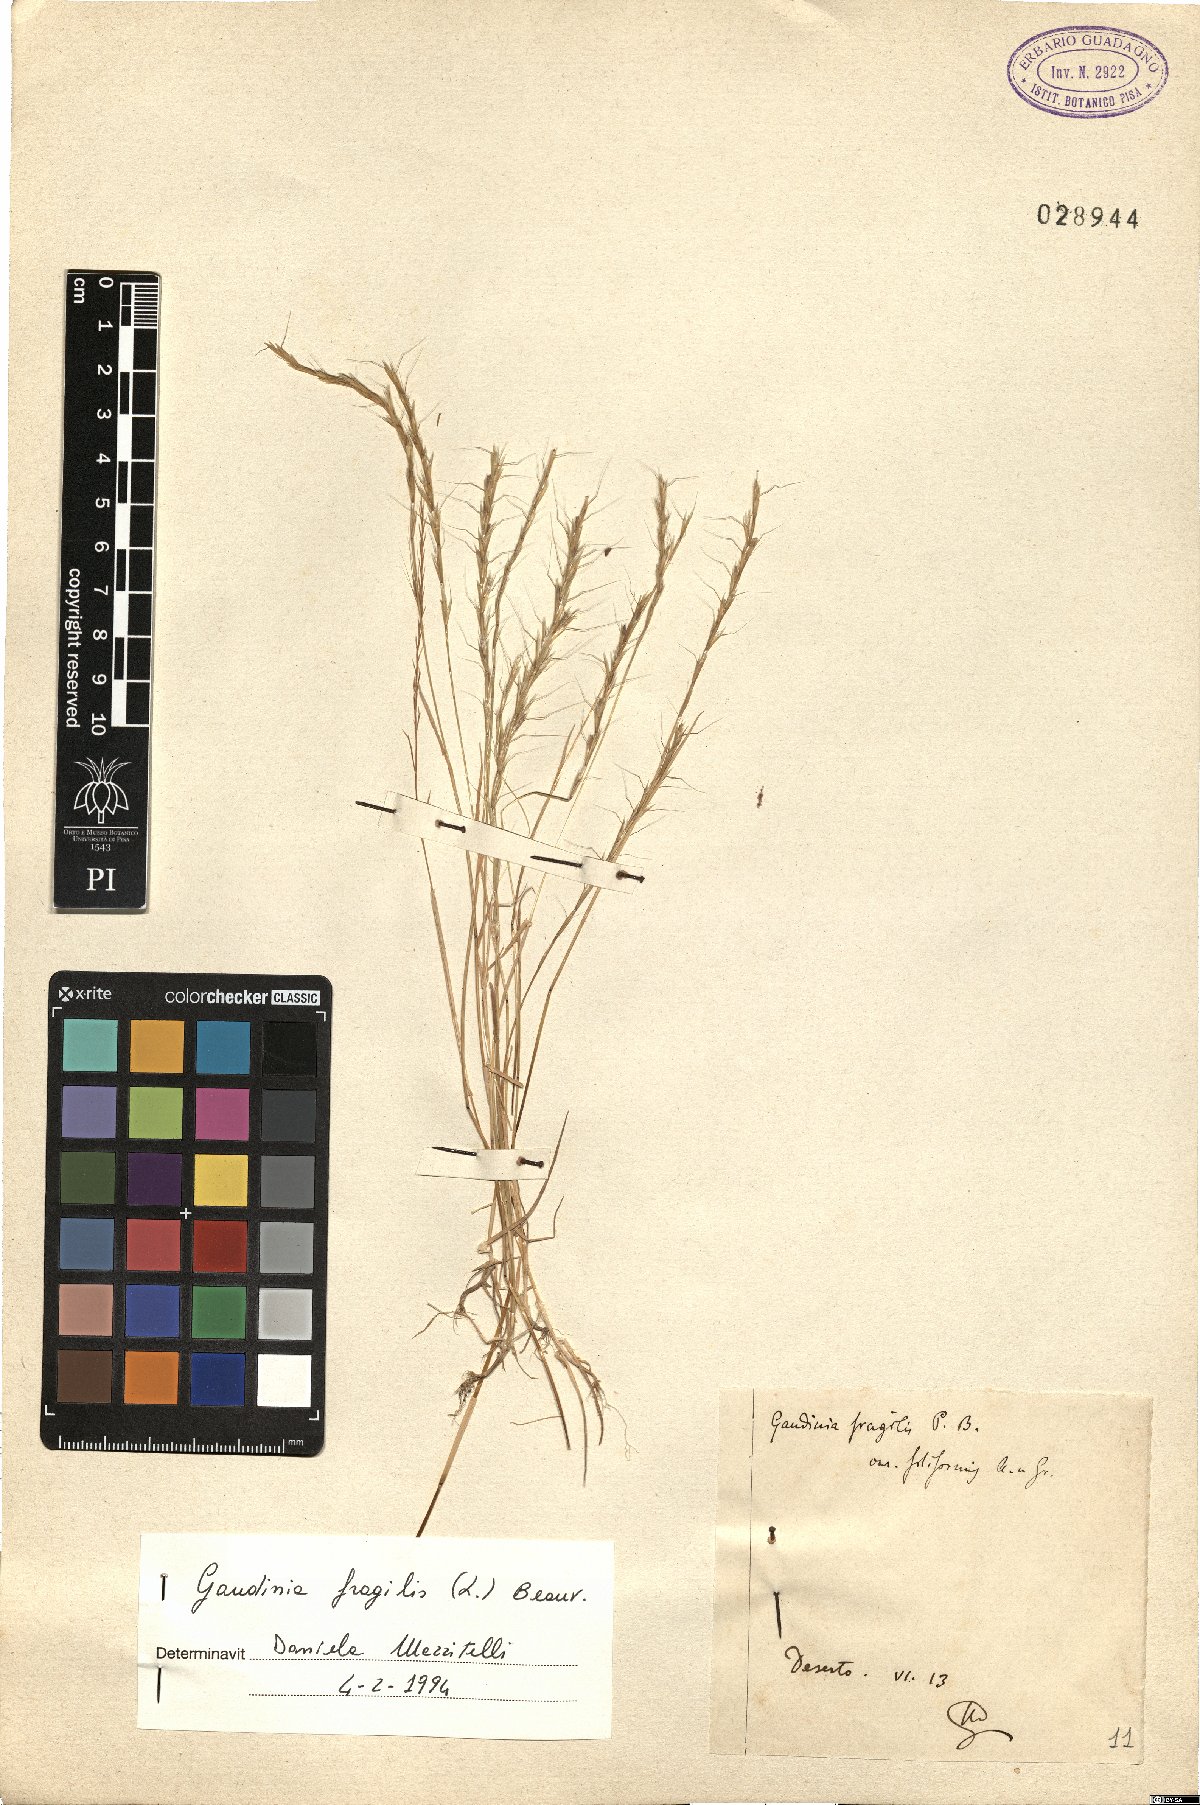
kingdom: Plantae
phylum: Tracheophyta
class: Liliopsida
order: Poales
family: Poaceae
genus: Gaudinia
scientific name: Gaudinia fragilis
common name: French oat-grass
